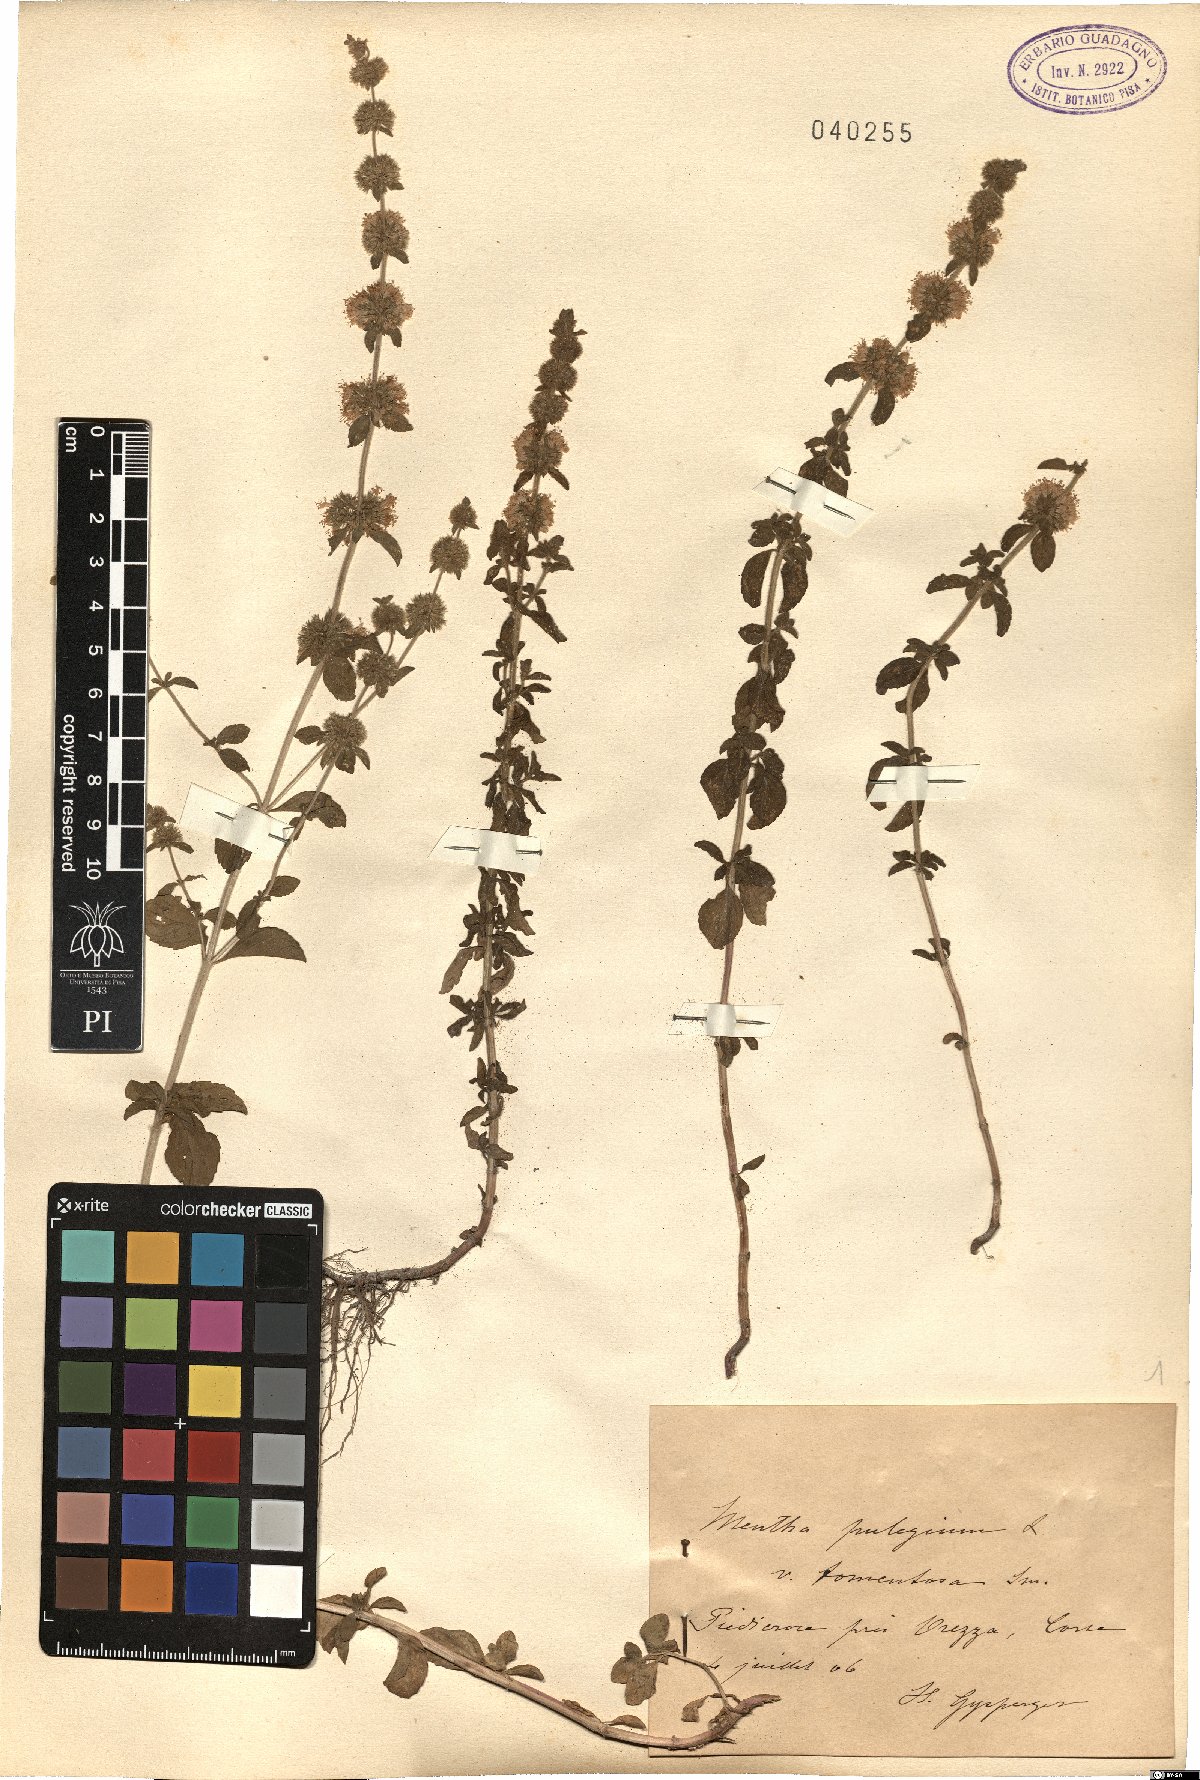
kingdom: Plantae
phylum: Tracheophyta
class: Magnoliopsida
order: Lamiales
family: Lamiaceae
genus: Mentha
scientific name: Mentha pulegium
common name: Pennyroyal
